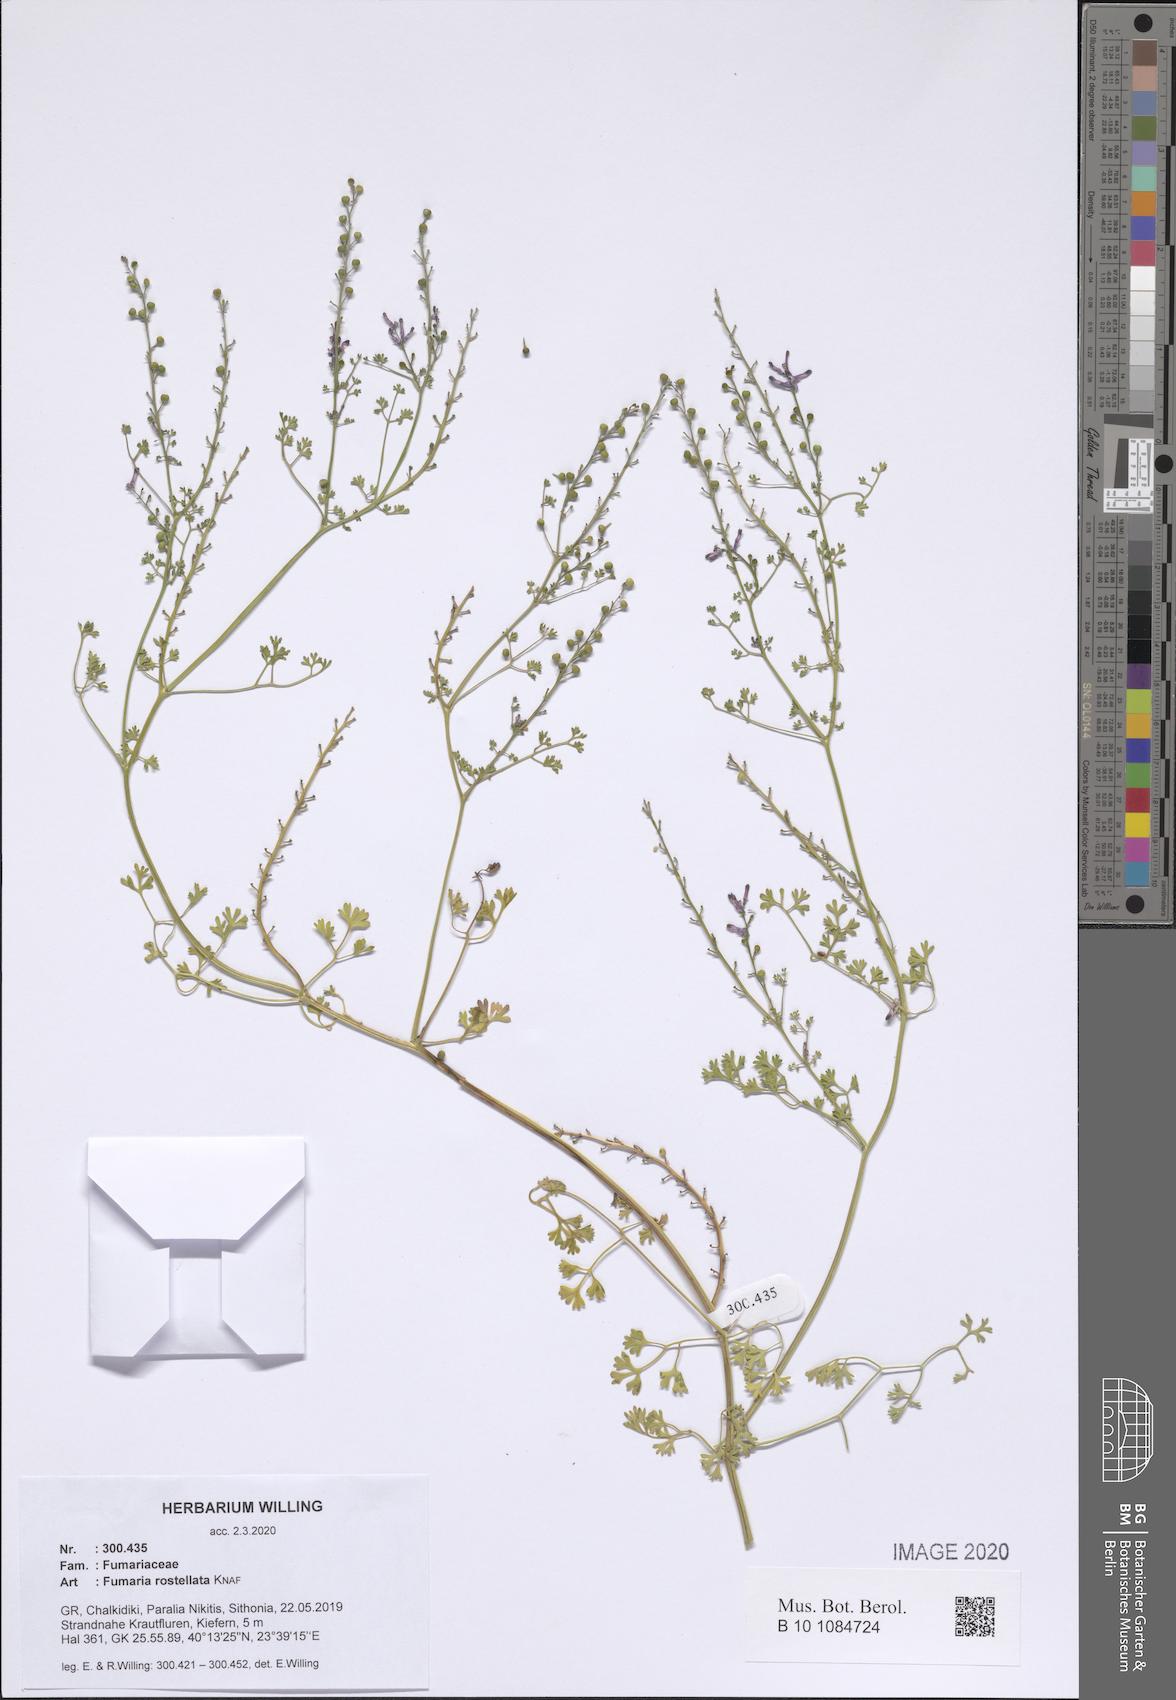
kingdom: Plantae
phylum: Tracheophyta
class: Magnoliopsida
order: Ranunculales
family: Papaveraceae
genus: Fumaria
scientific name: Fumaria rostellata
